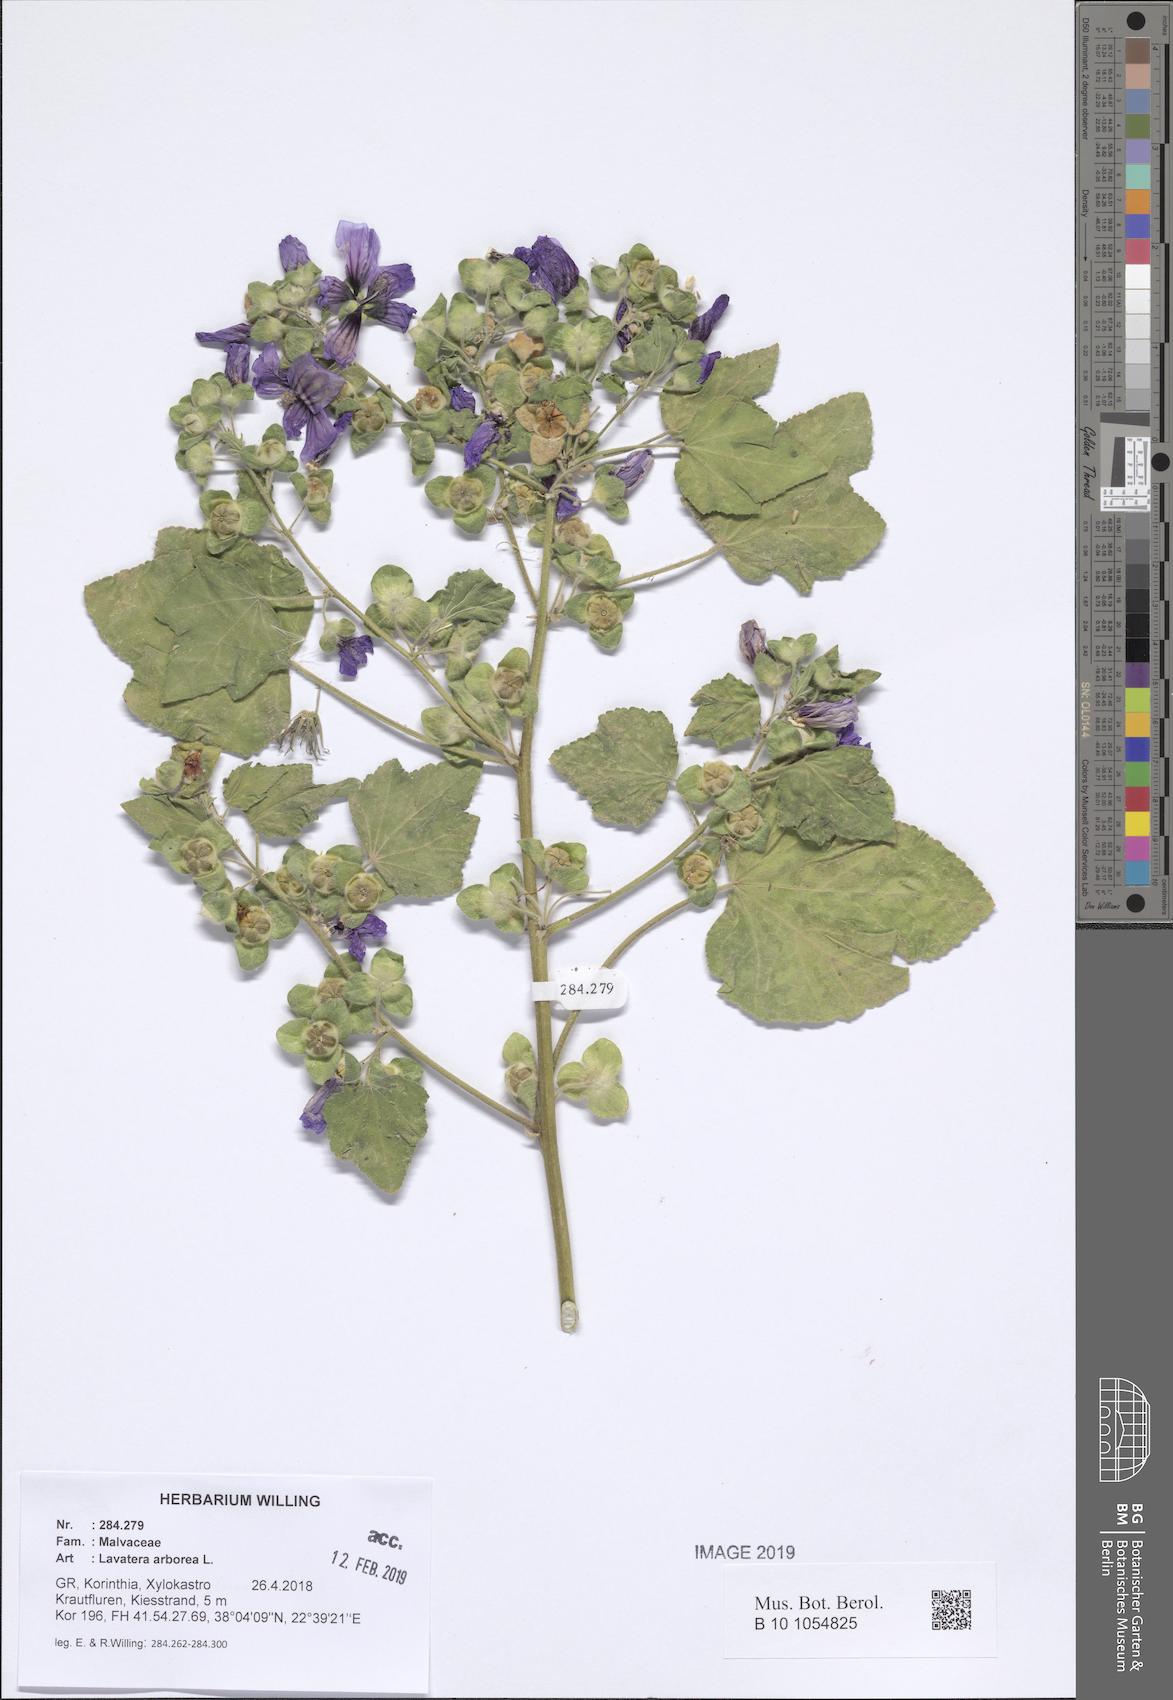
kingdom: Plantae
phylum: Tracheophyta
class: Magnoliopsida
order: Malvales
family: Malvaceae
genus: Malva
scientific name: Malva arborea
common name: Tree mallow
